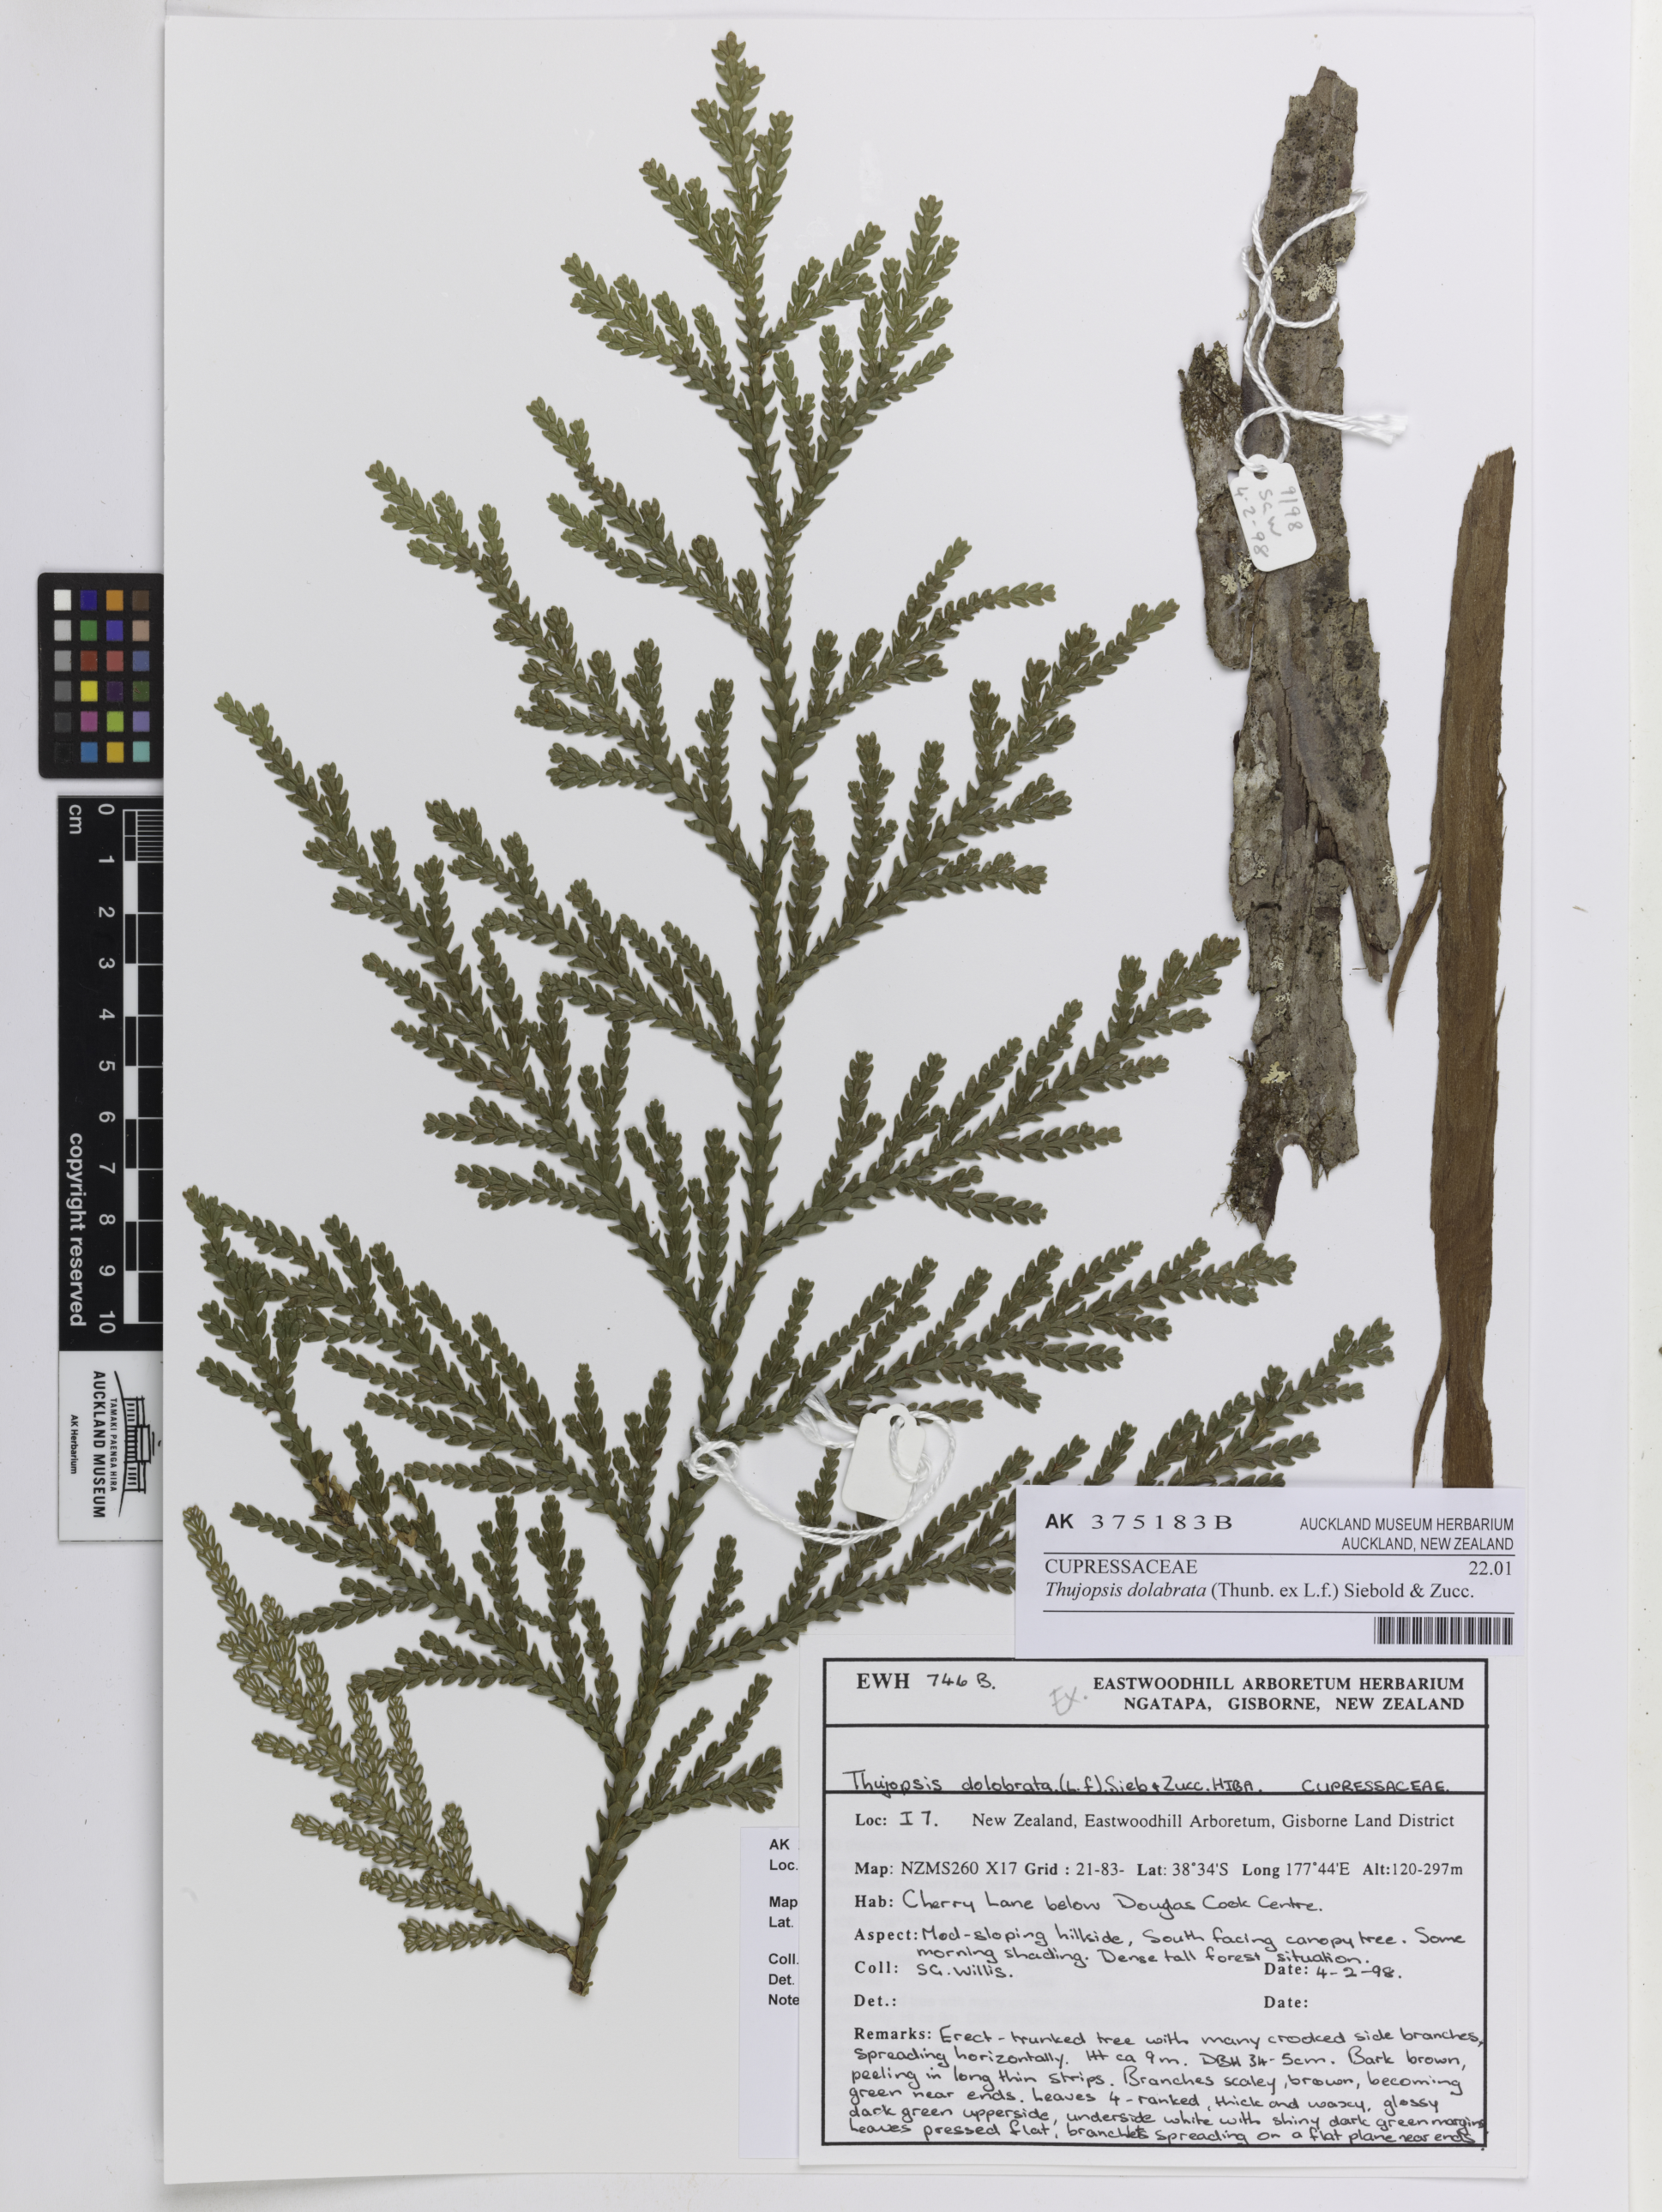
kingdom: Plantae
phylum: Tracheophyta
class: Pinopsida
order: Pinales
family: Cupressaceae
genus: Thujopsis
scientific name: Thujopsis dolabrata
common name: Hiba
